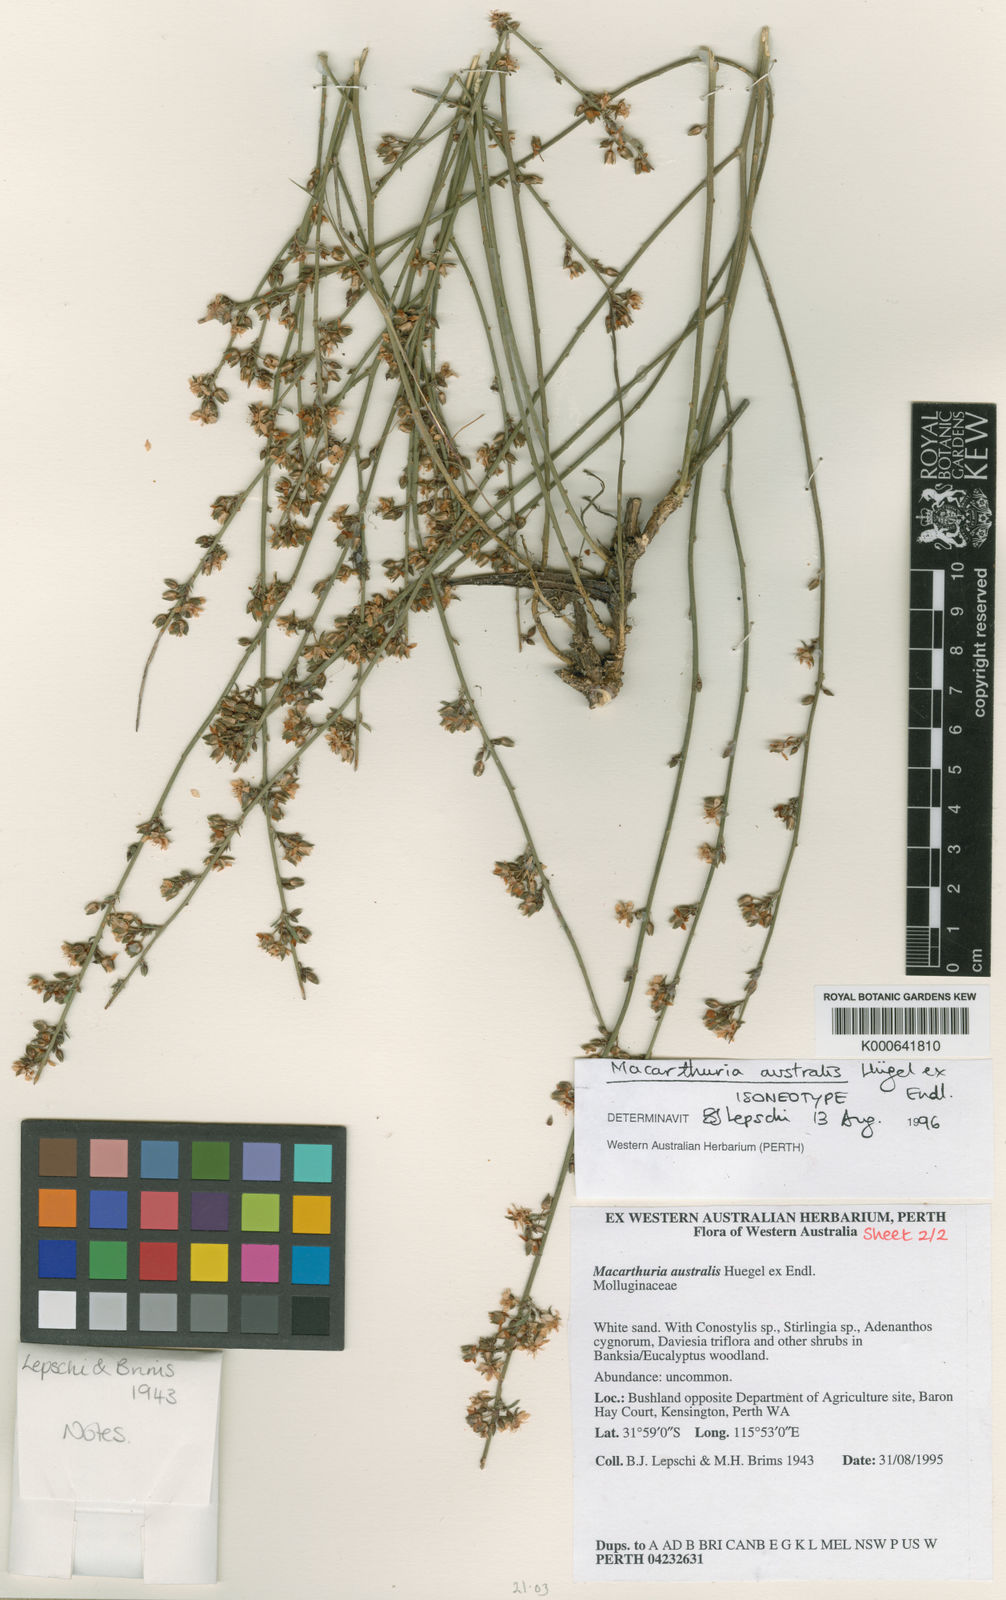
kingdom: Plantae
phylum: Tracheophyta
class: Magnoliopsida
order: Caryophyllales
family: Macarthuriaceae
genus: Macarthuria
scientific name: Macarthuria
